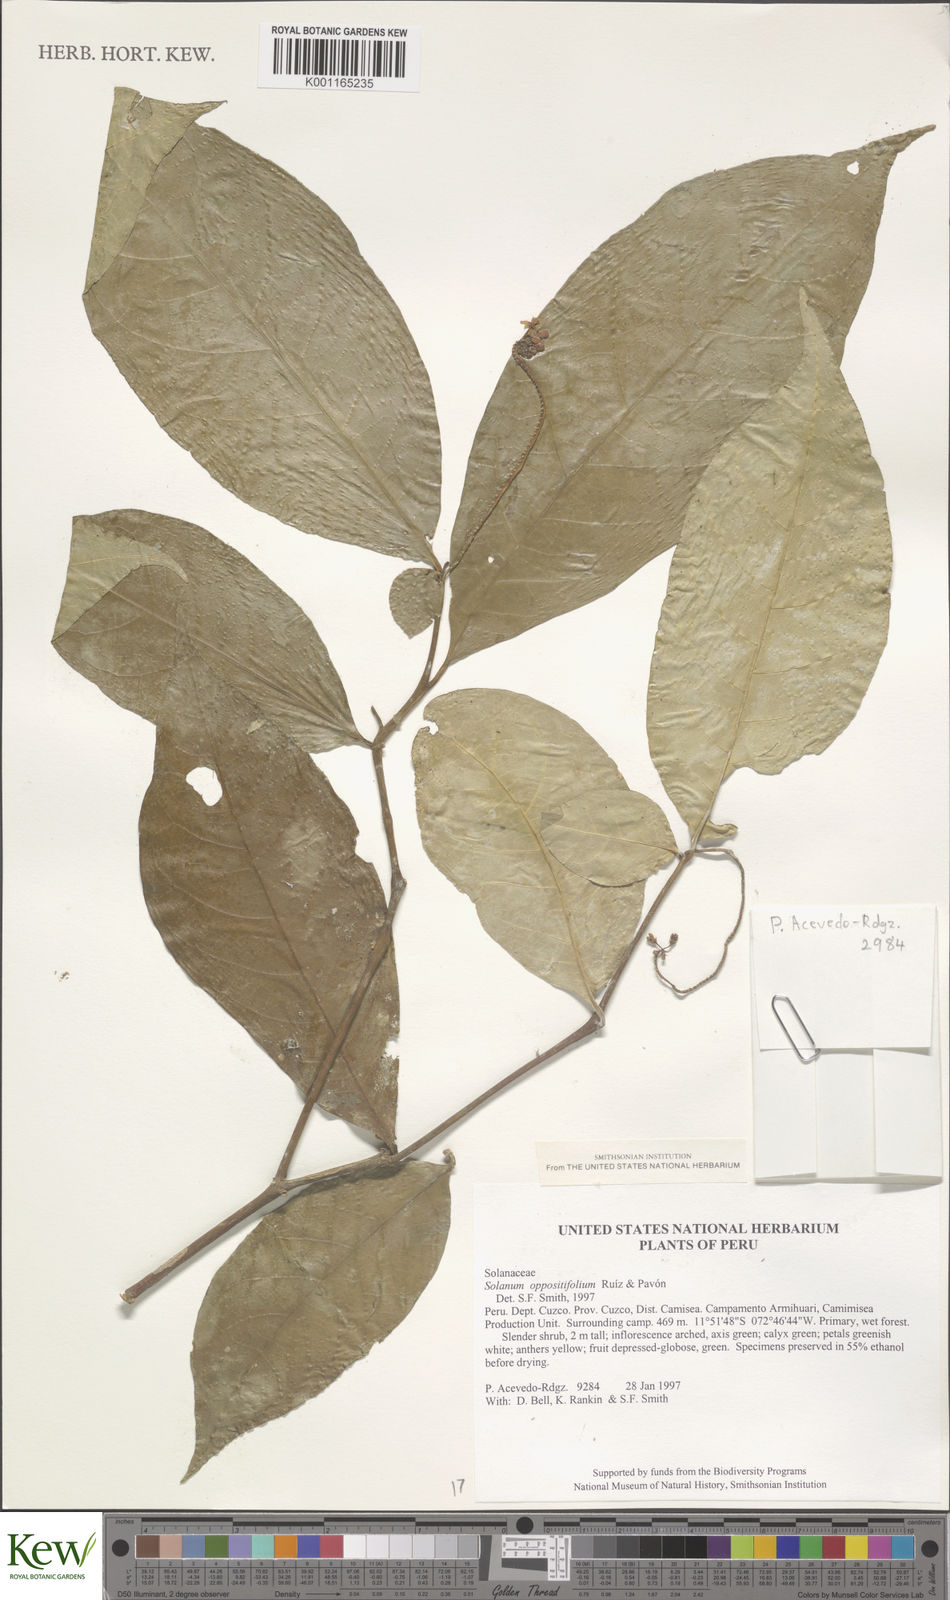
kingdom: Plantae
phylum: Tracheophyta
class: Magnoliopsida
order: Solanales
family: Solanaceae
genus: Solanum
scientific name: Solanum oppositifolium
